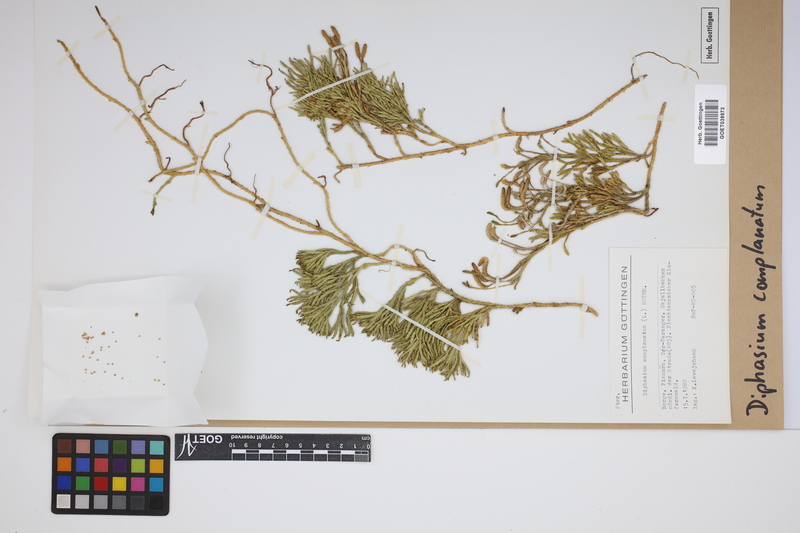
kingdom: Plantae
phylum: Tracheophyta
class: Lycopodiopsida
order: Lycopodiales
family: Lycopodiaceae
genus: Diphasiastrum
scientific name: Diphasiastrum complanatum
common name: Northern running-pine
